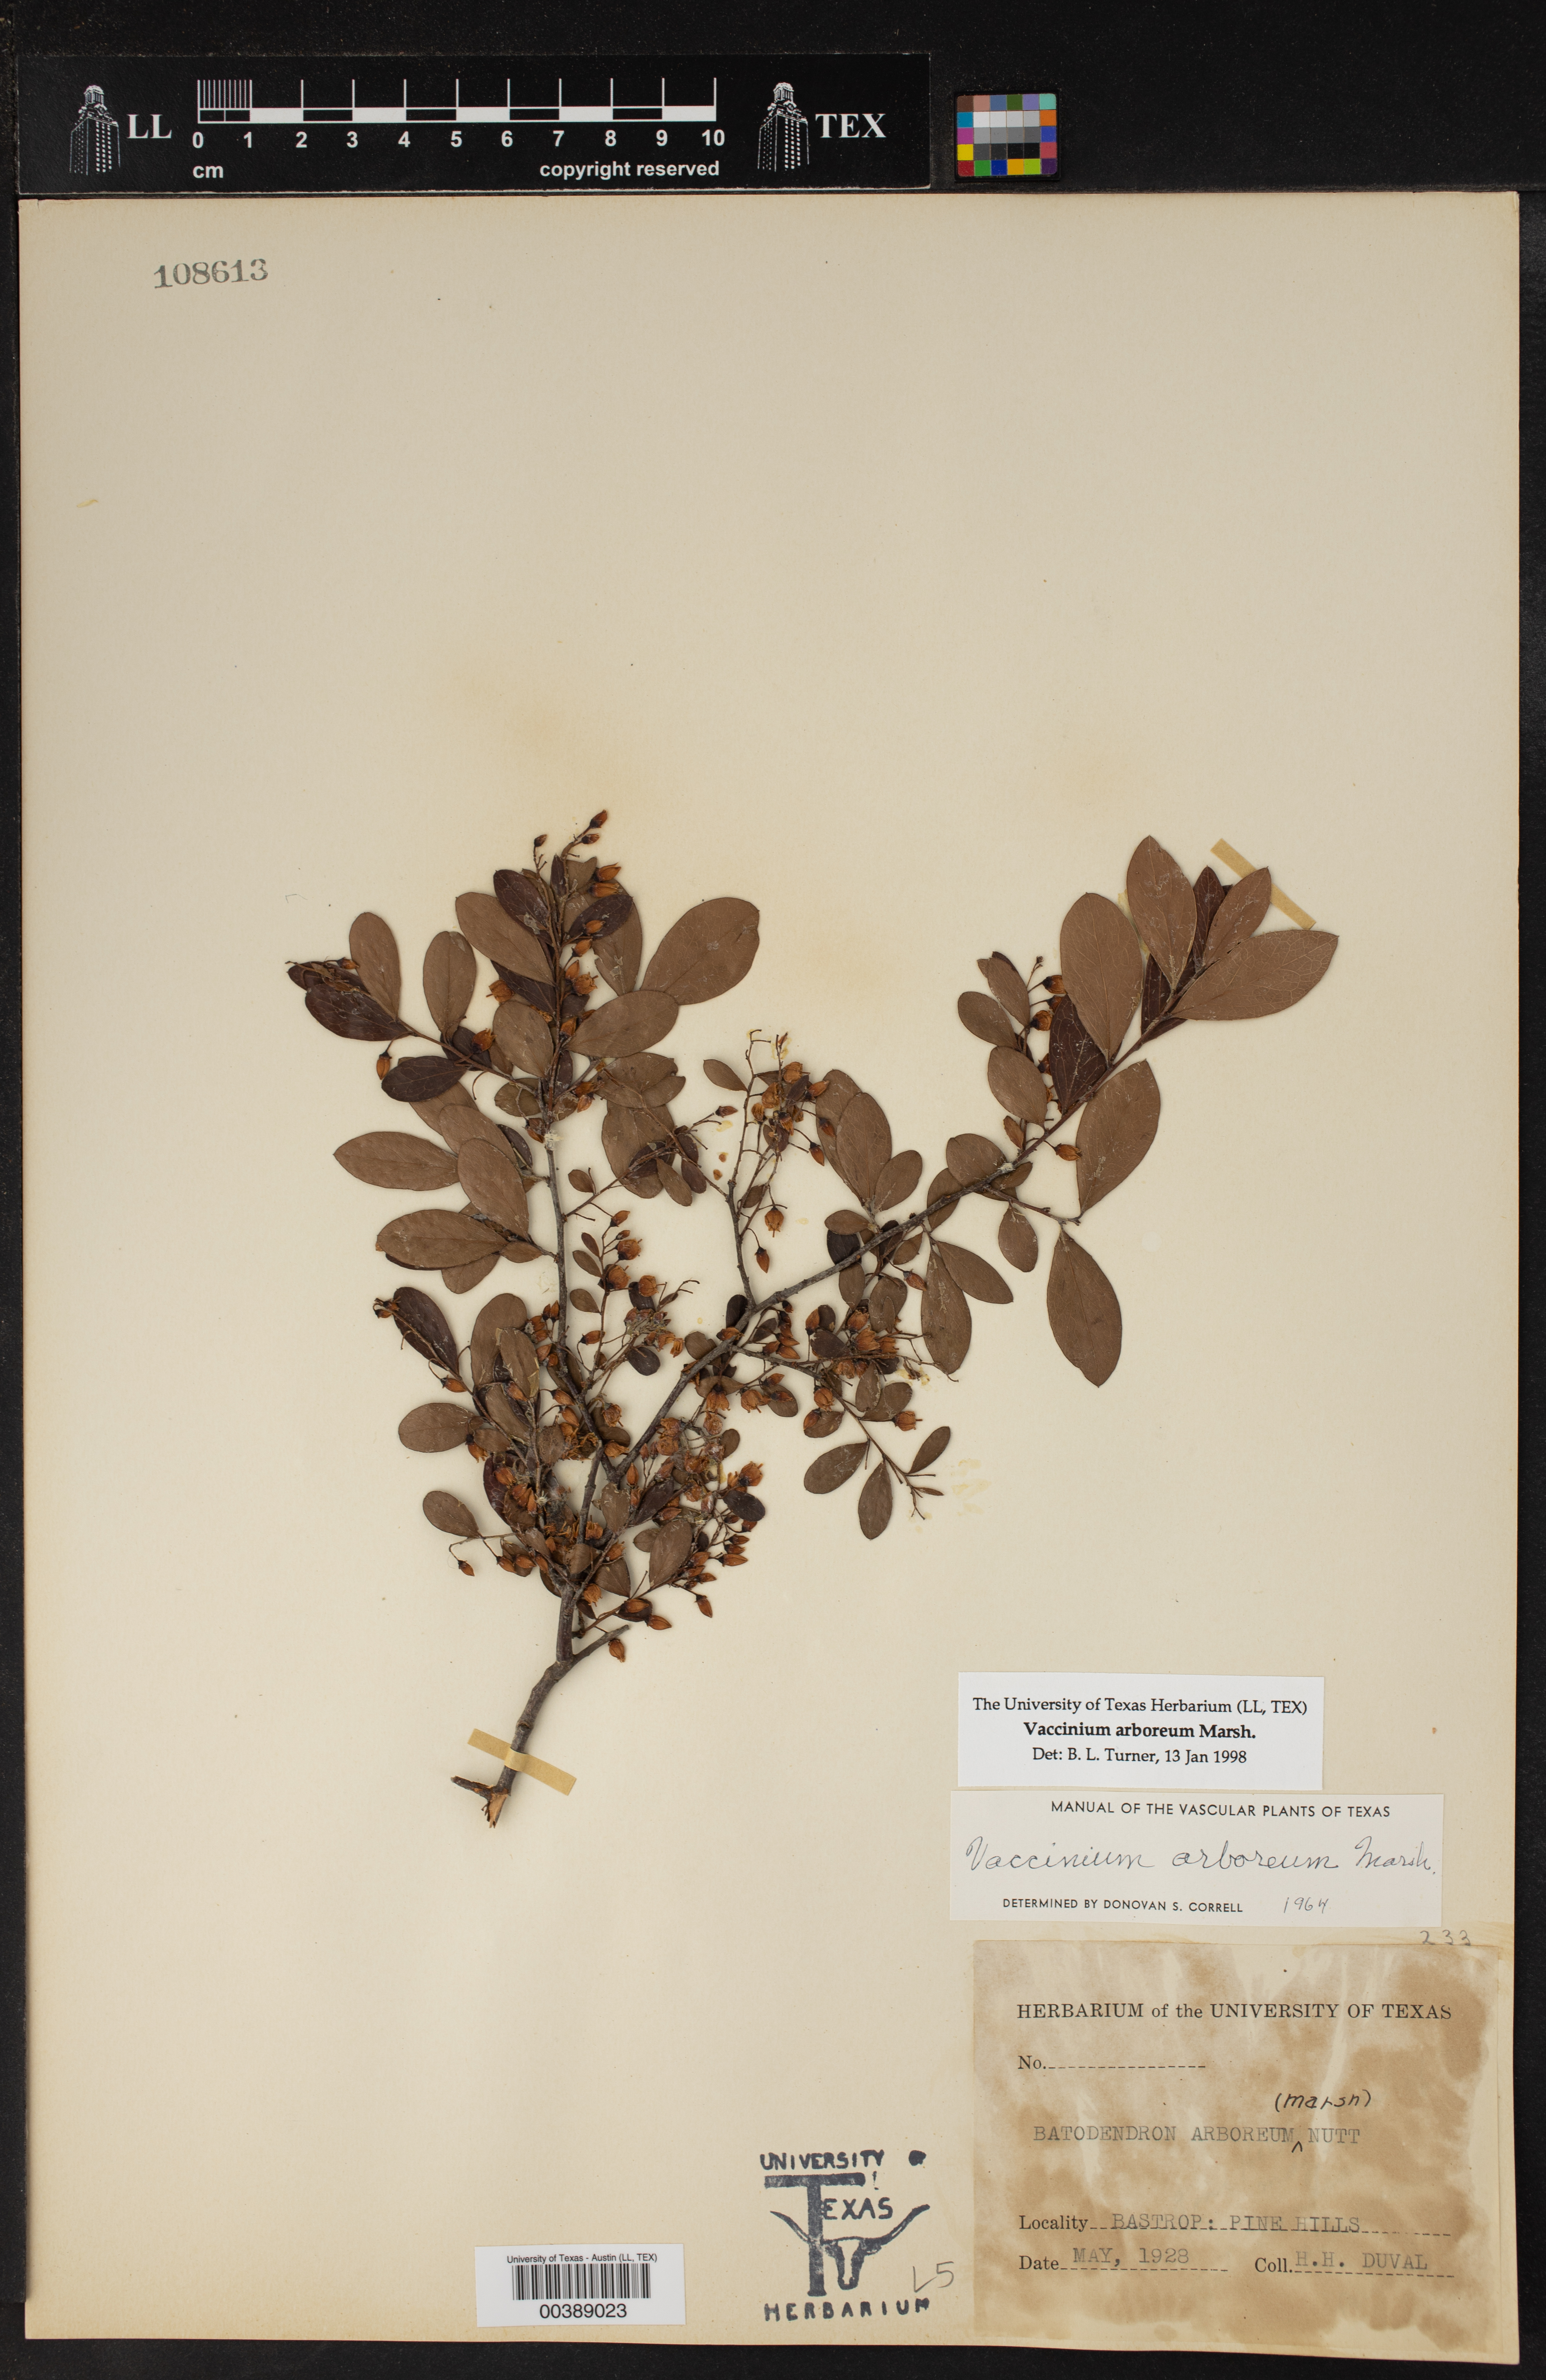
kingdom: Plantae
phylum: Tracheophyta
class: Magnoliopsida
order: Ericales
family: Ericaceae
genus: Vaccinium
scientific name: Vaccinium arboreum
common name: Farkleberry
